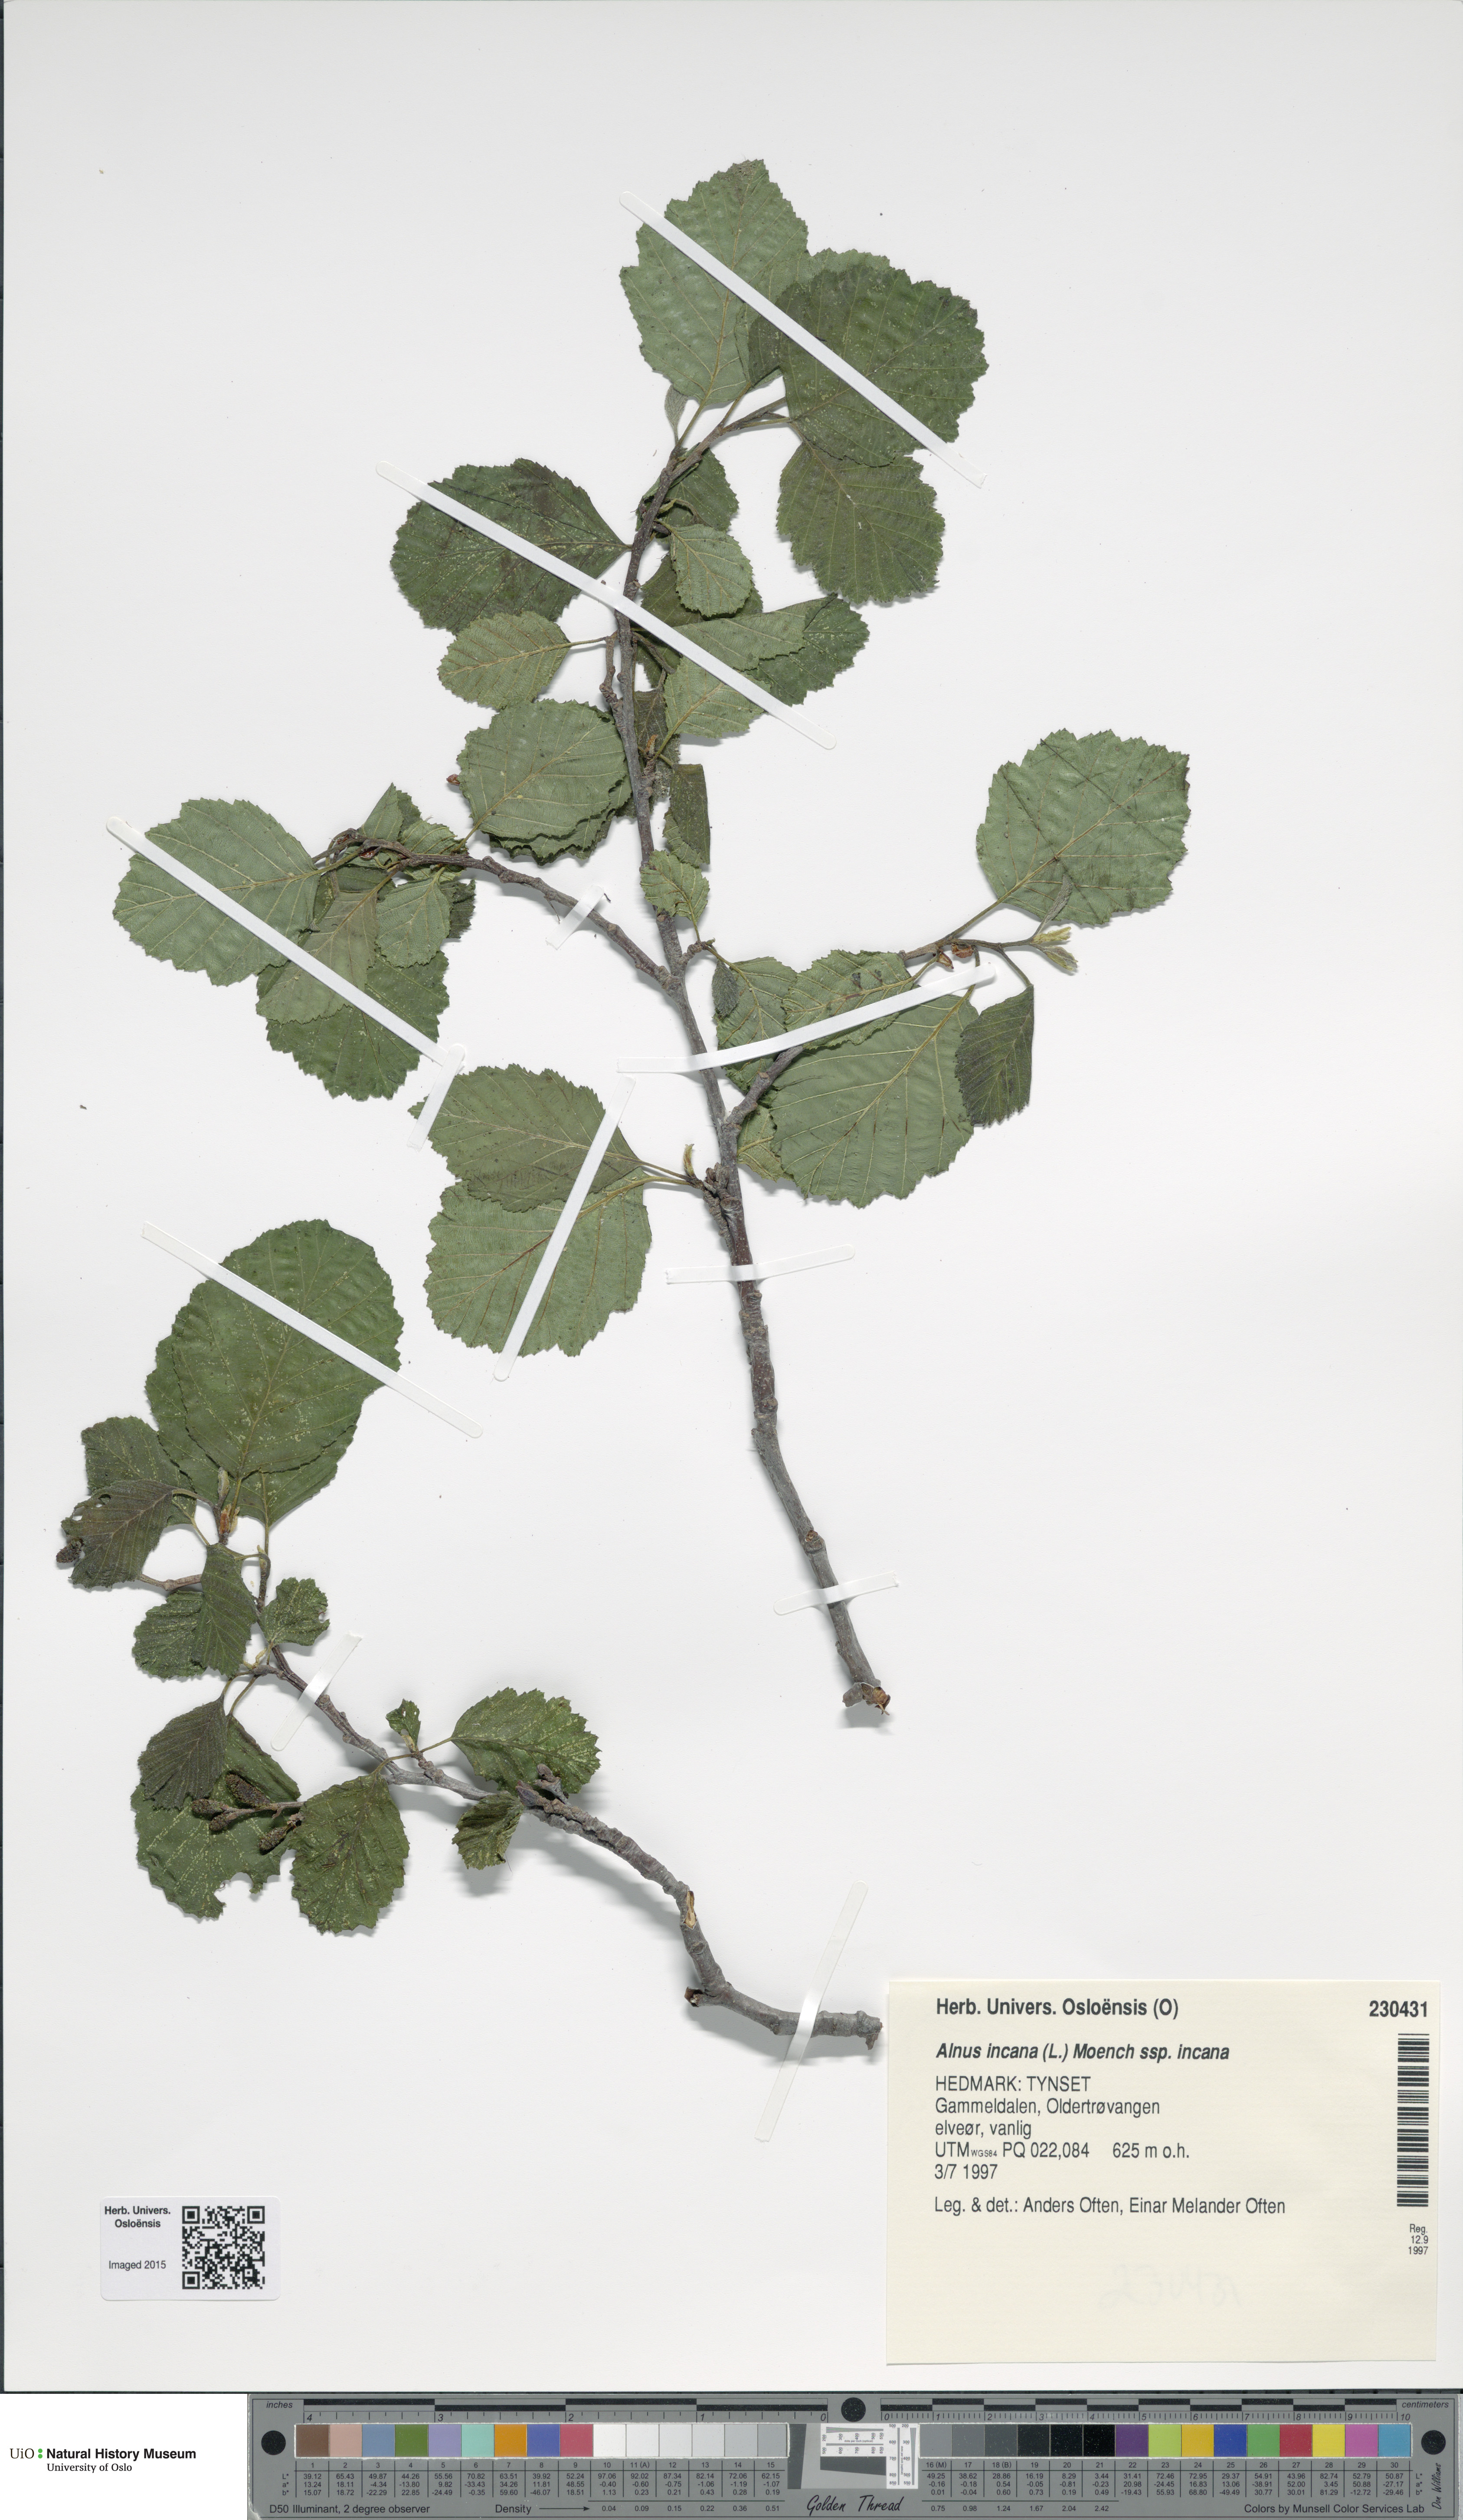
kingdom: Plantae
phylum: Tracheophyta
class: Magnoliopsida
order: Fagales
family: Betulaceae
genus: Alnus
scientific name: Alnus incana
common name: Grey alder
